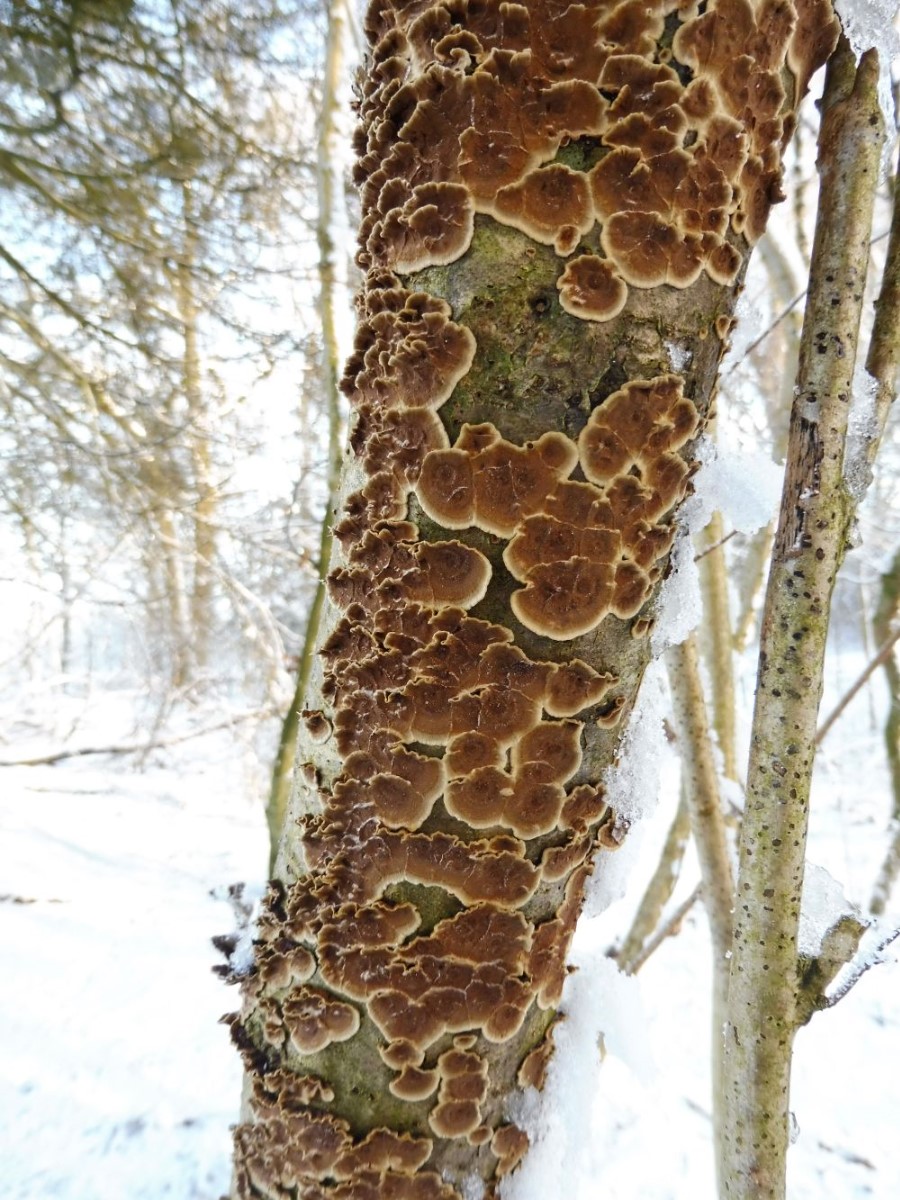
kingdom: Fungi
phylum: Basidiomycota
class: Agaricomycetes
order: Russulales
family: Stereaceae
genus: Stereum
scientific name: Stereum rugosum
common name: rynket lædersvamp
